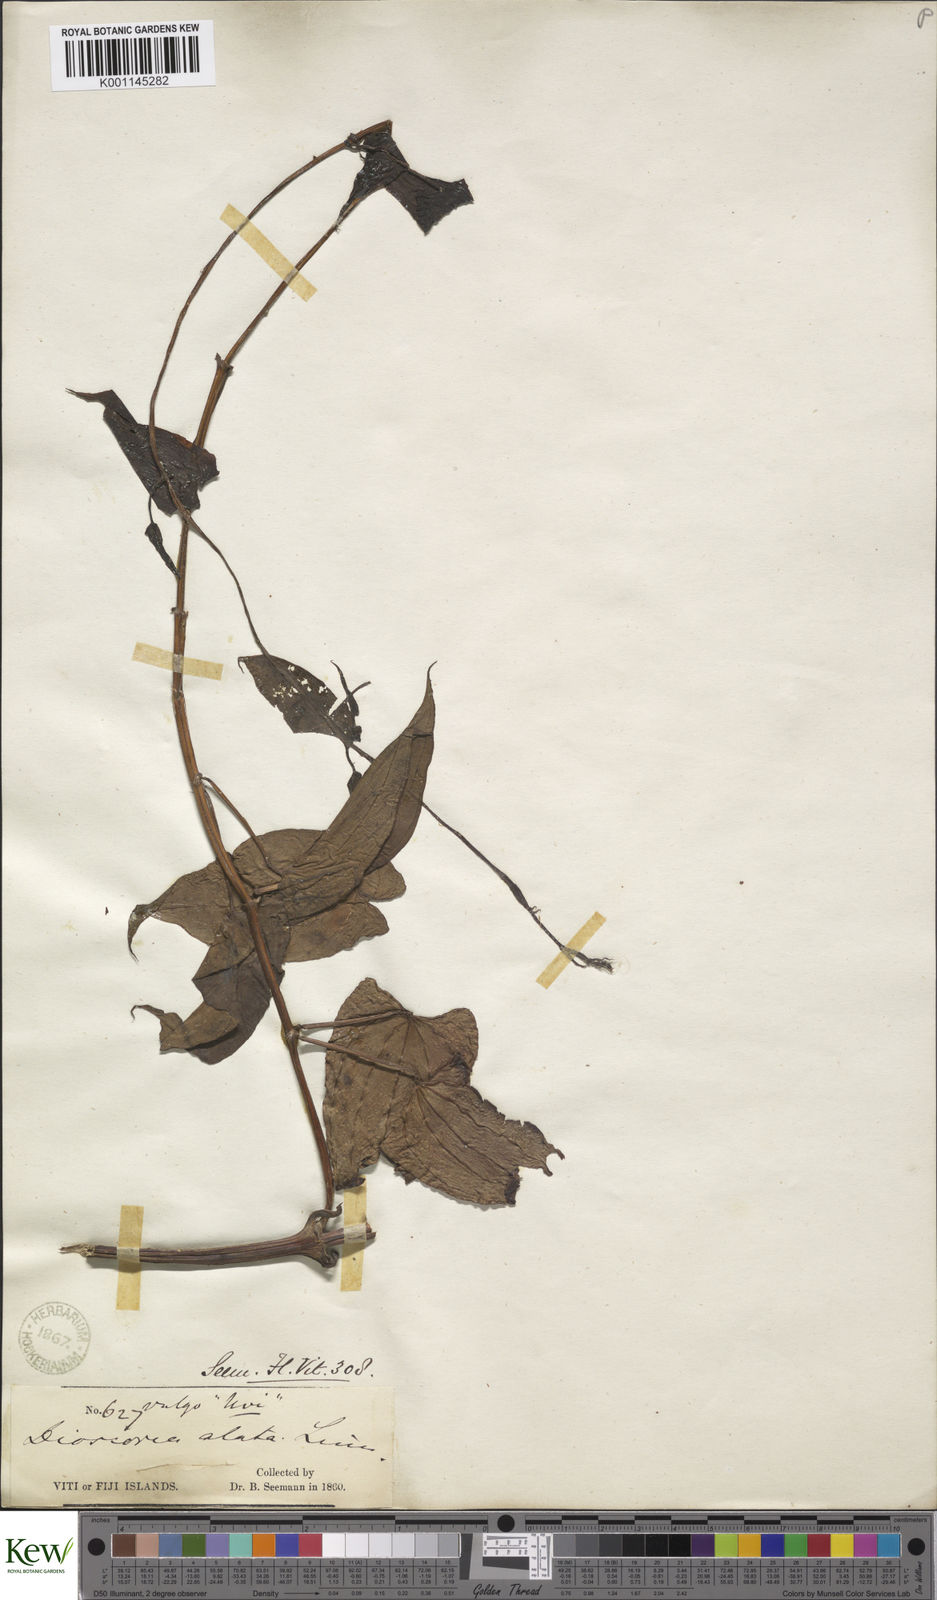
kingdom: Plantae
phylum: Tracheophyta
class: Liliopsida
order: Dioscoreales
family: Dioscoreaceae
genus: Dioscorea
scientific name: Dioscorea alata
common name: Water yam
